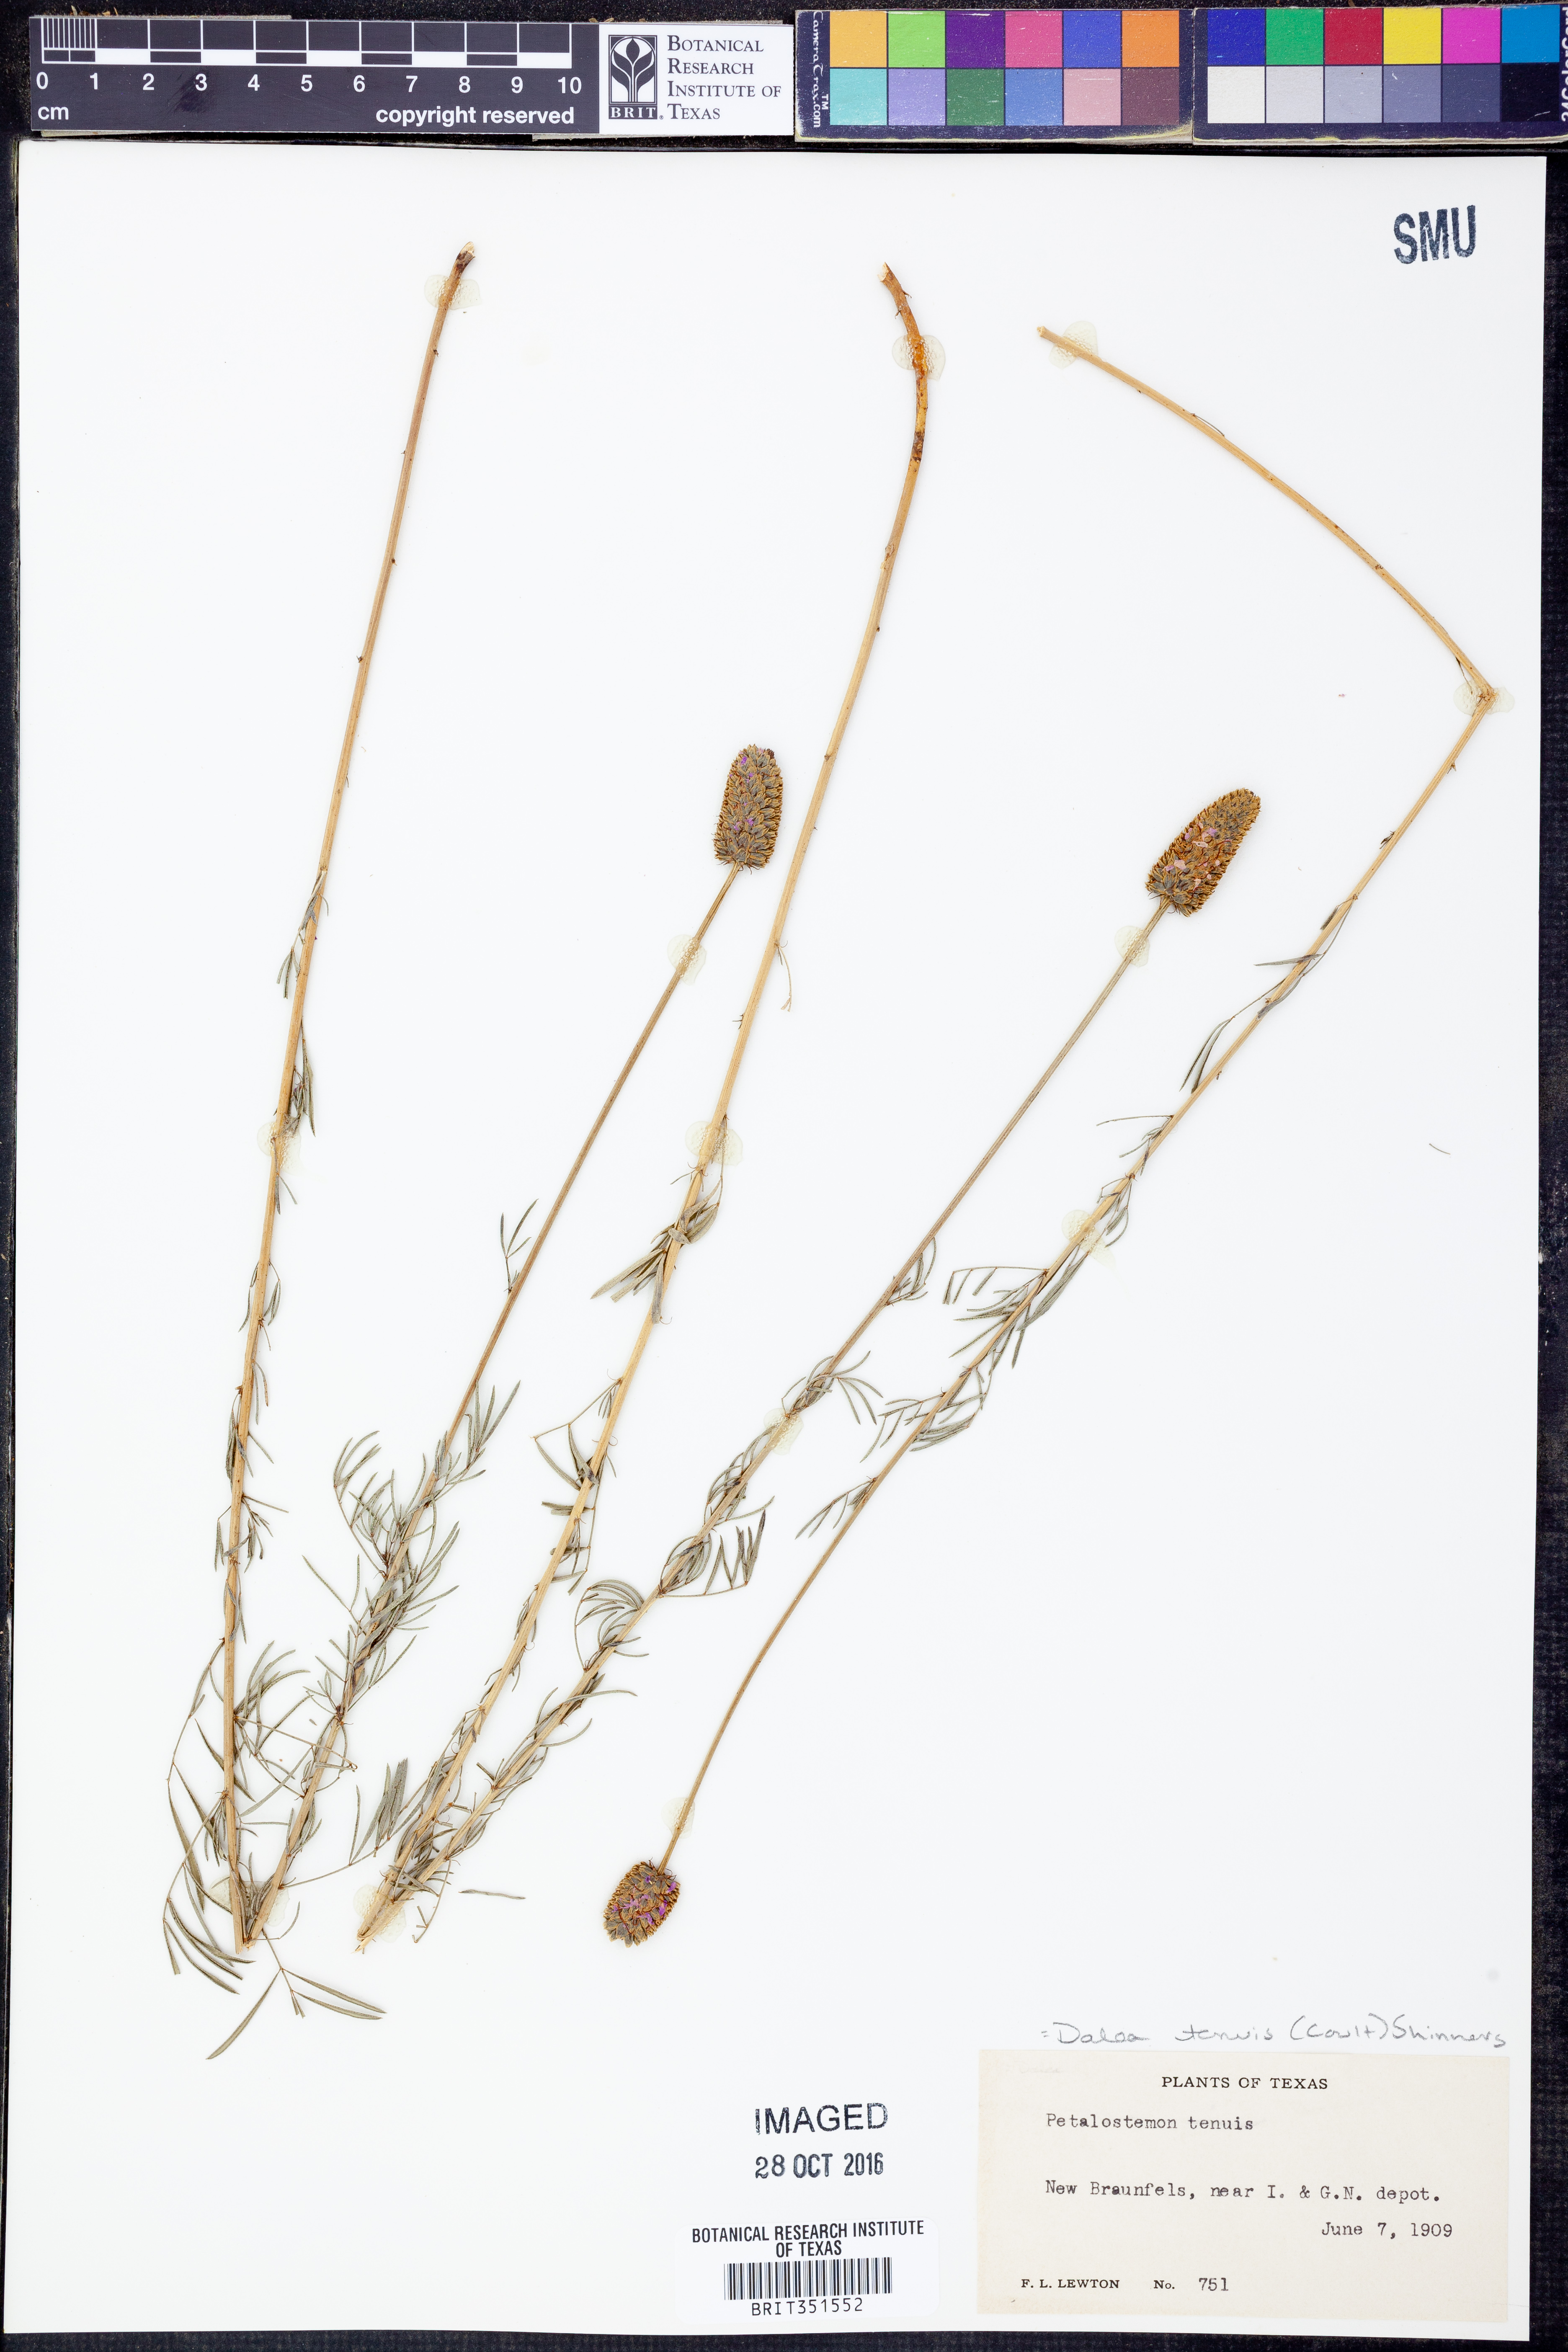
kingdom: Plantae
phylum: Tracheophyta
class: Magnoliopsida
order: Fabales
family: Fabaceae
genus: Dalea
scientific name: Dalea tenuis
